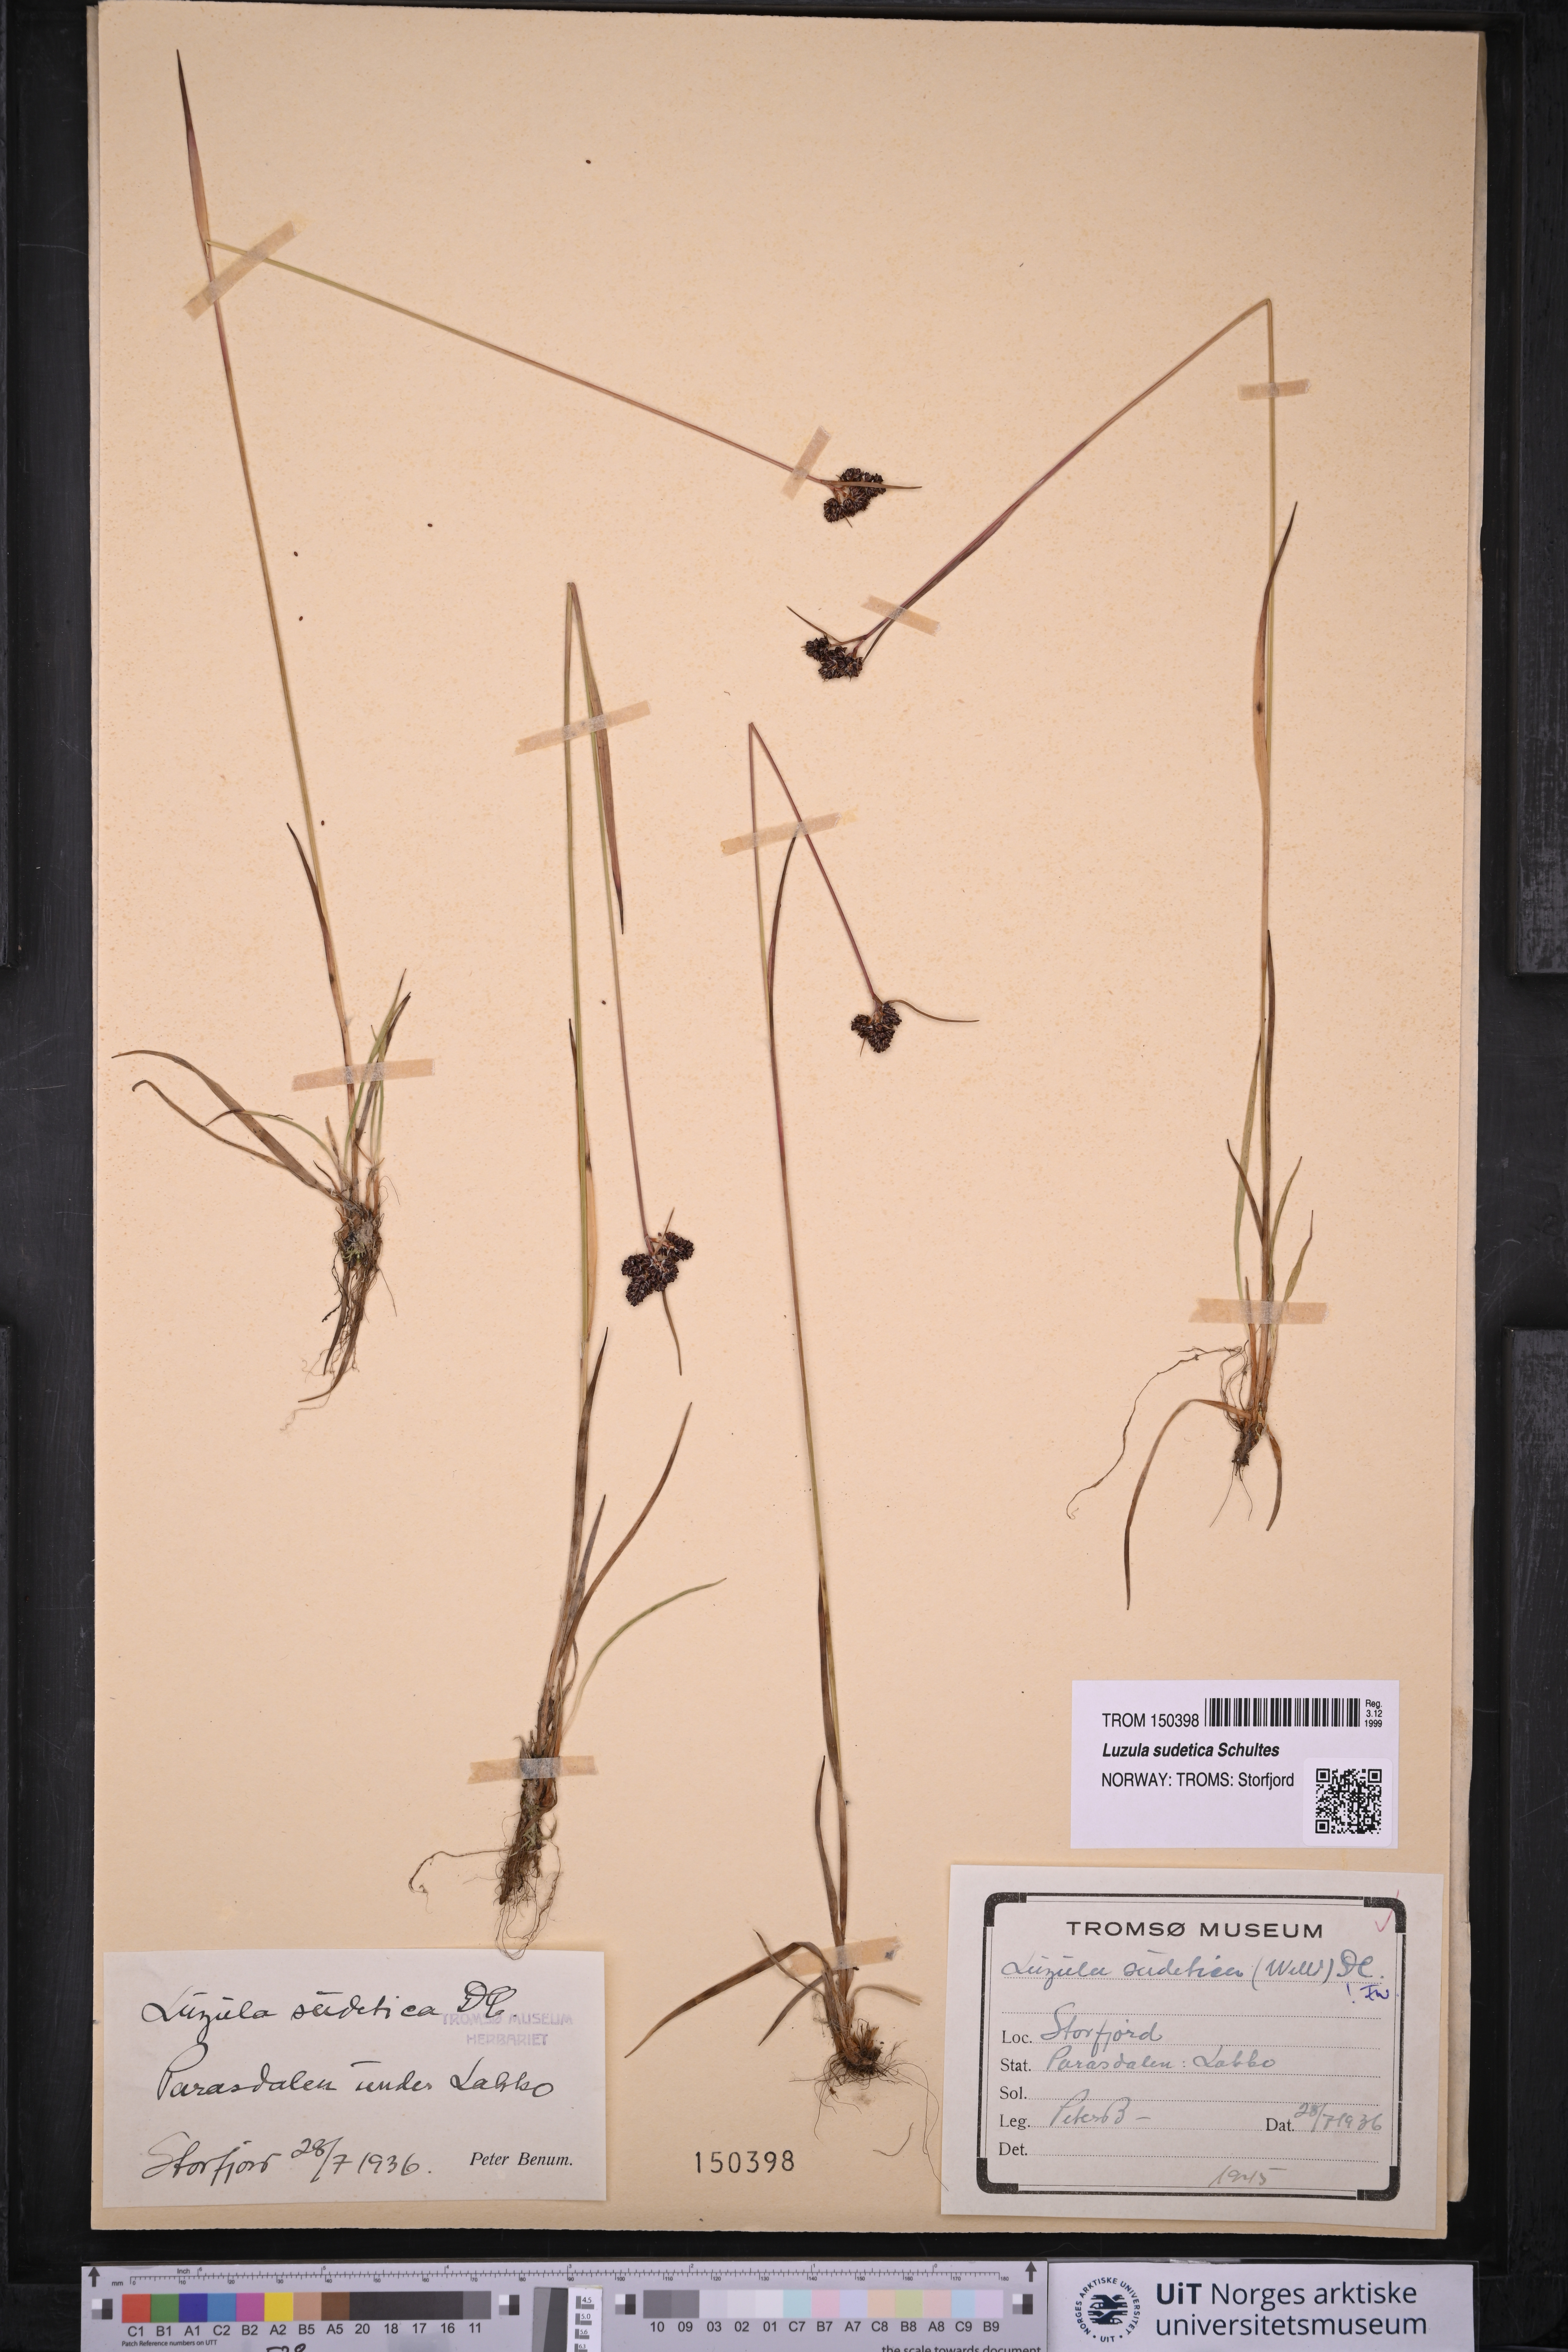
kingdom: Plantae
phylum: Tracheophyta
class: Liliopsida
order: Poales
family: Juncaceae
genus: Luzula
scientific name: Luzula sudetica
